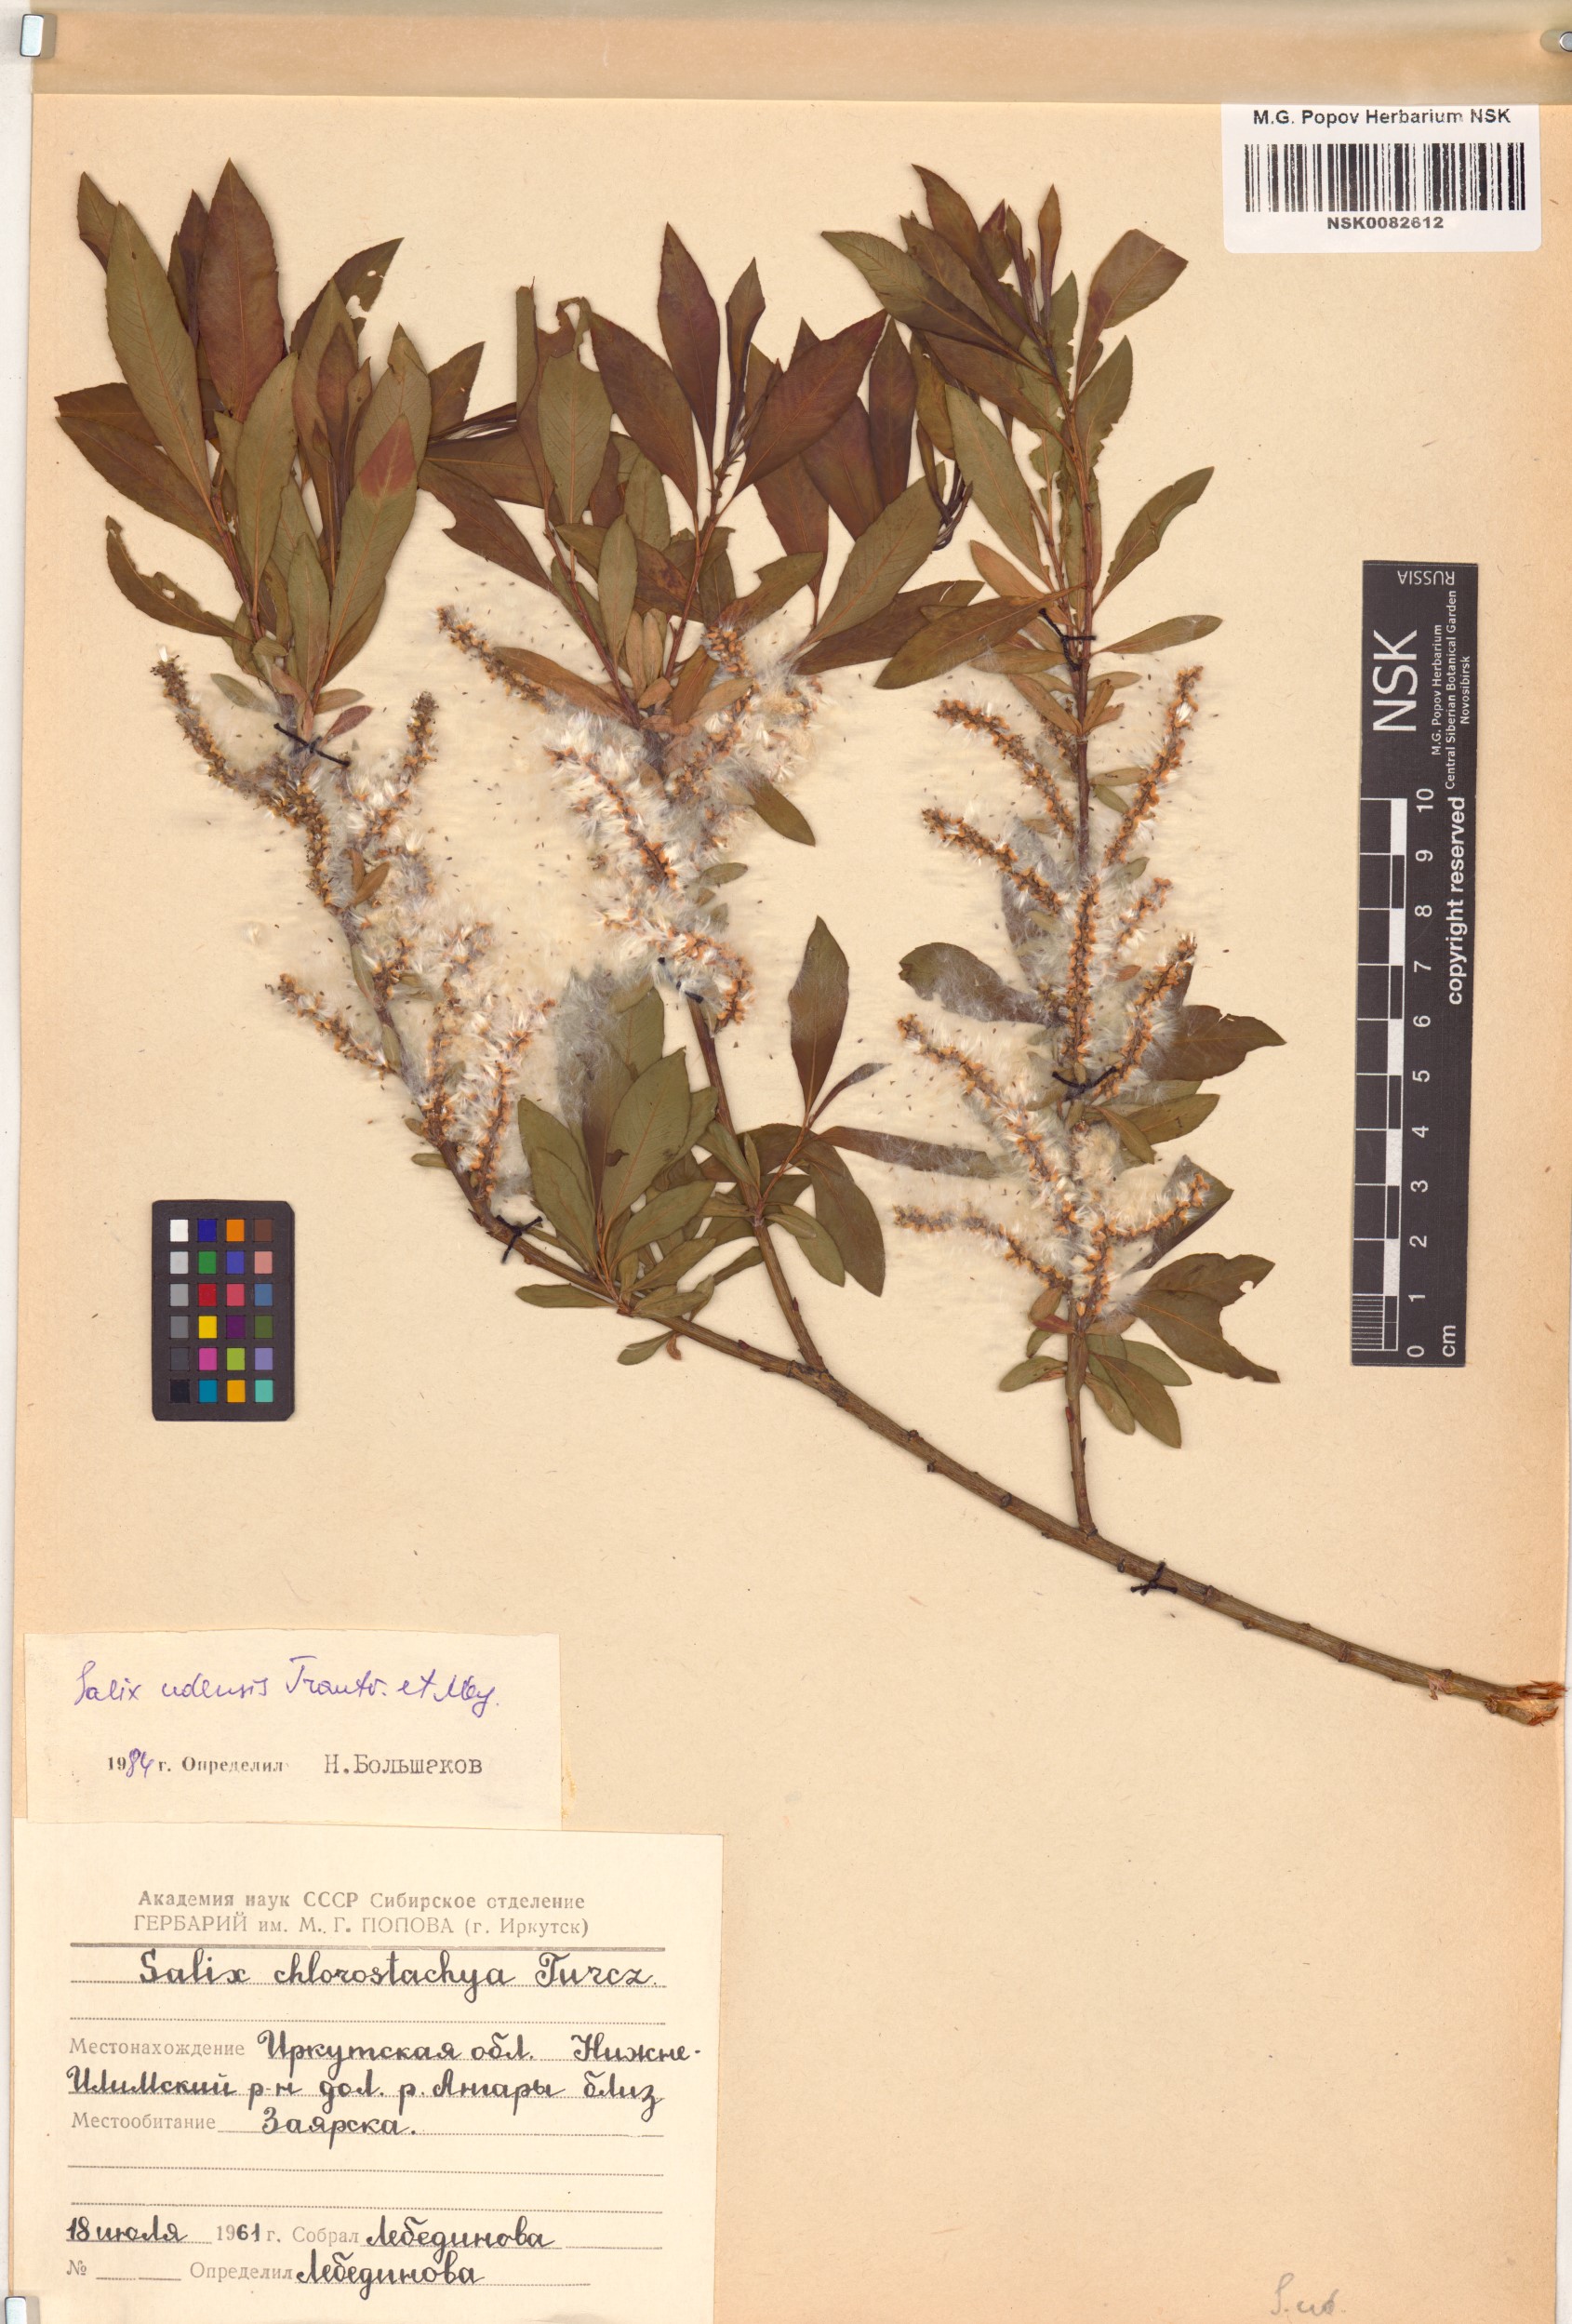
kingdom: Plantae
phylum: Tracheophyta
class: Magnoliopsida
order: Malpighiales
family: Salicaceae
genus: Salix
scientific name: Salix udensis
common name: Sachalin willow
